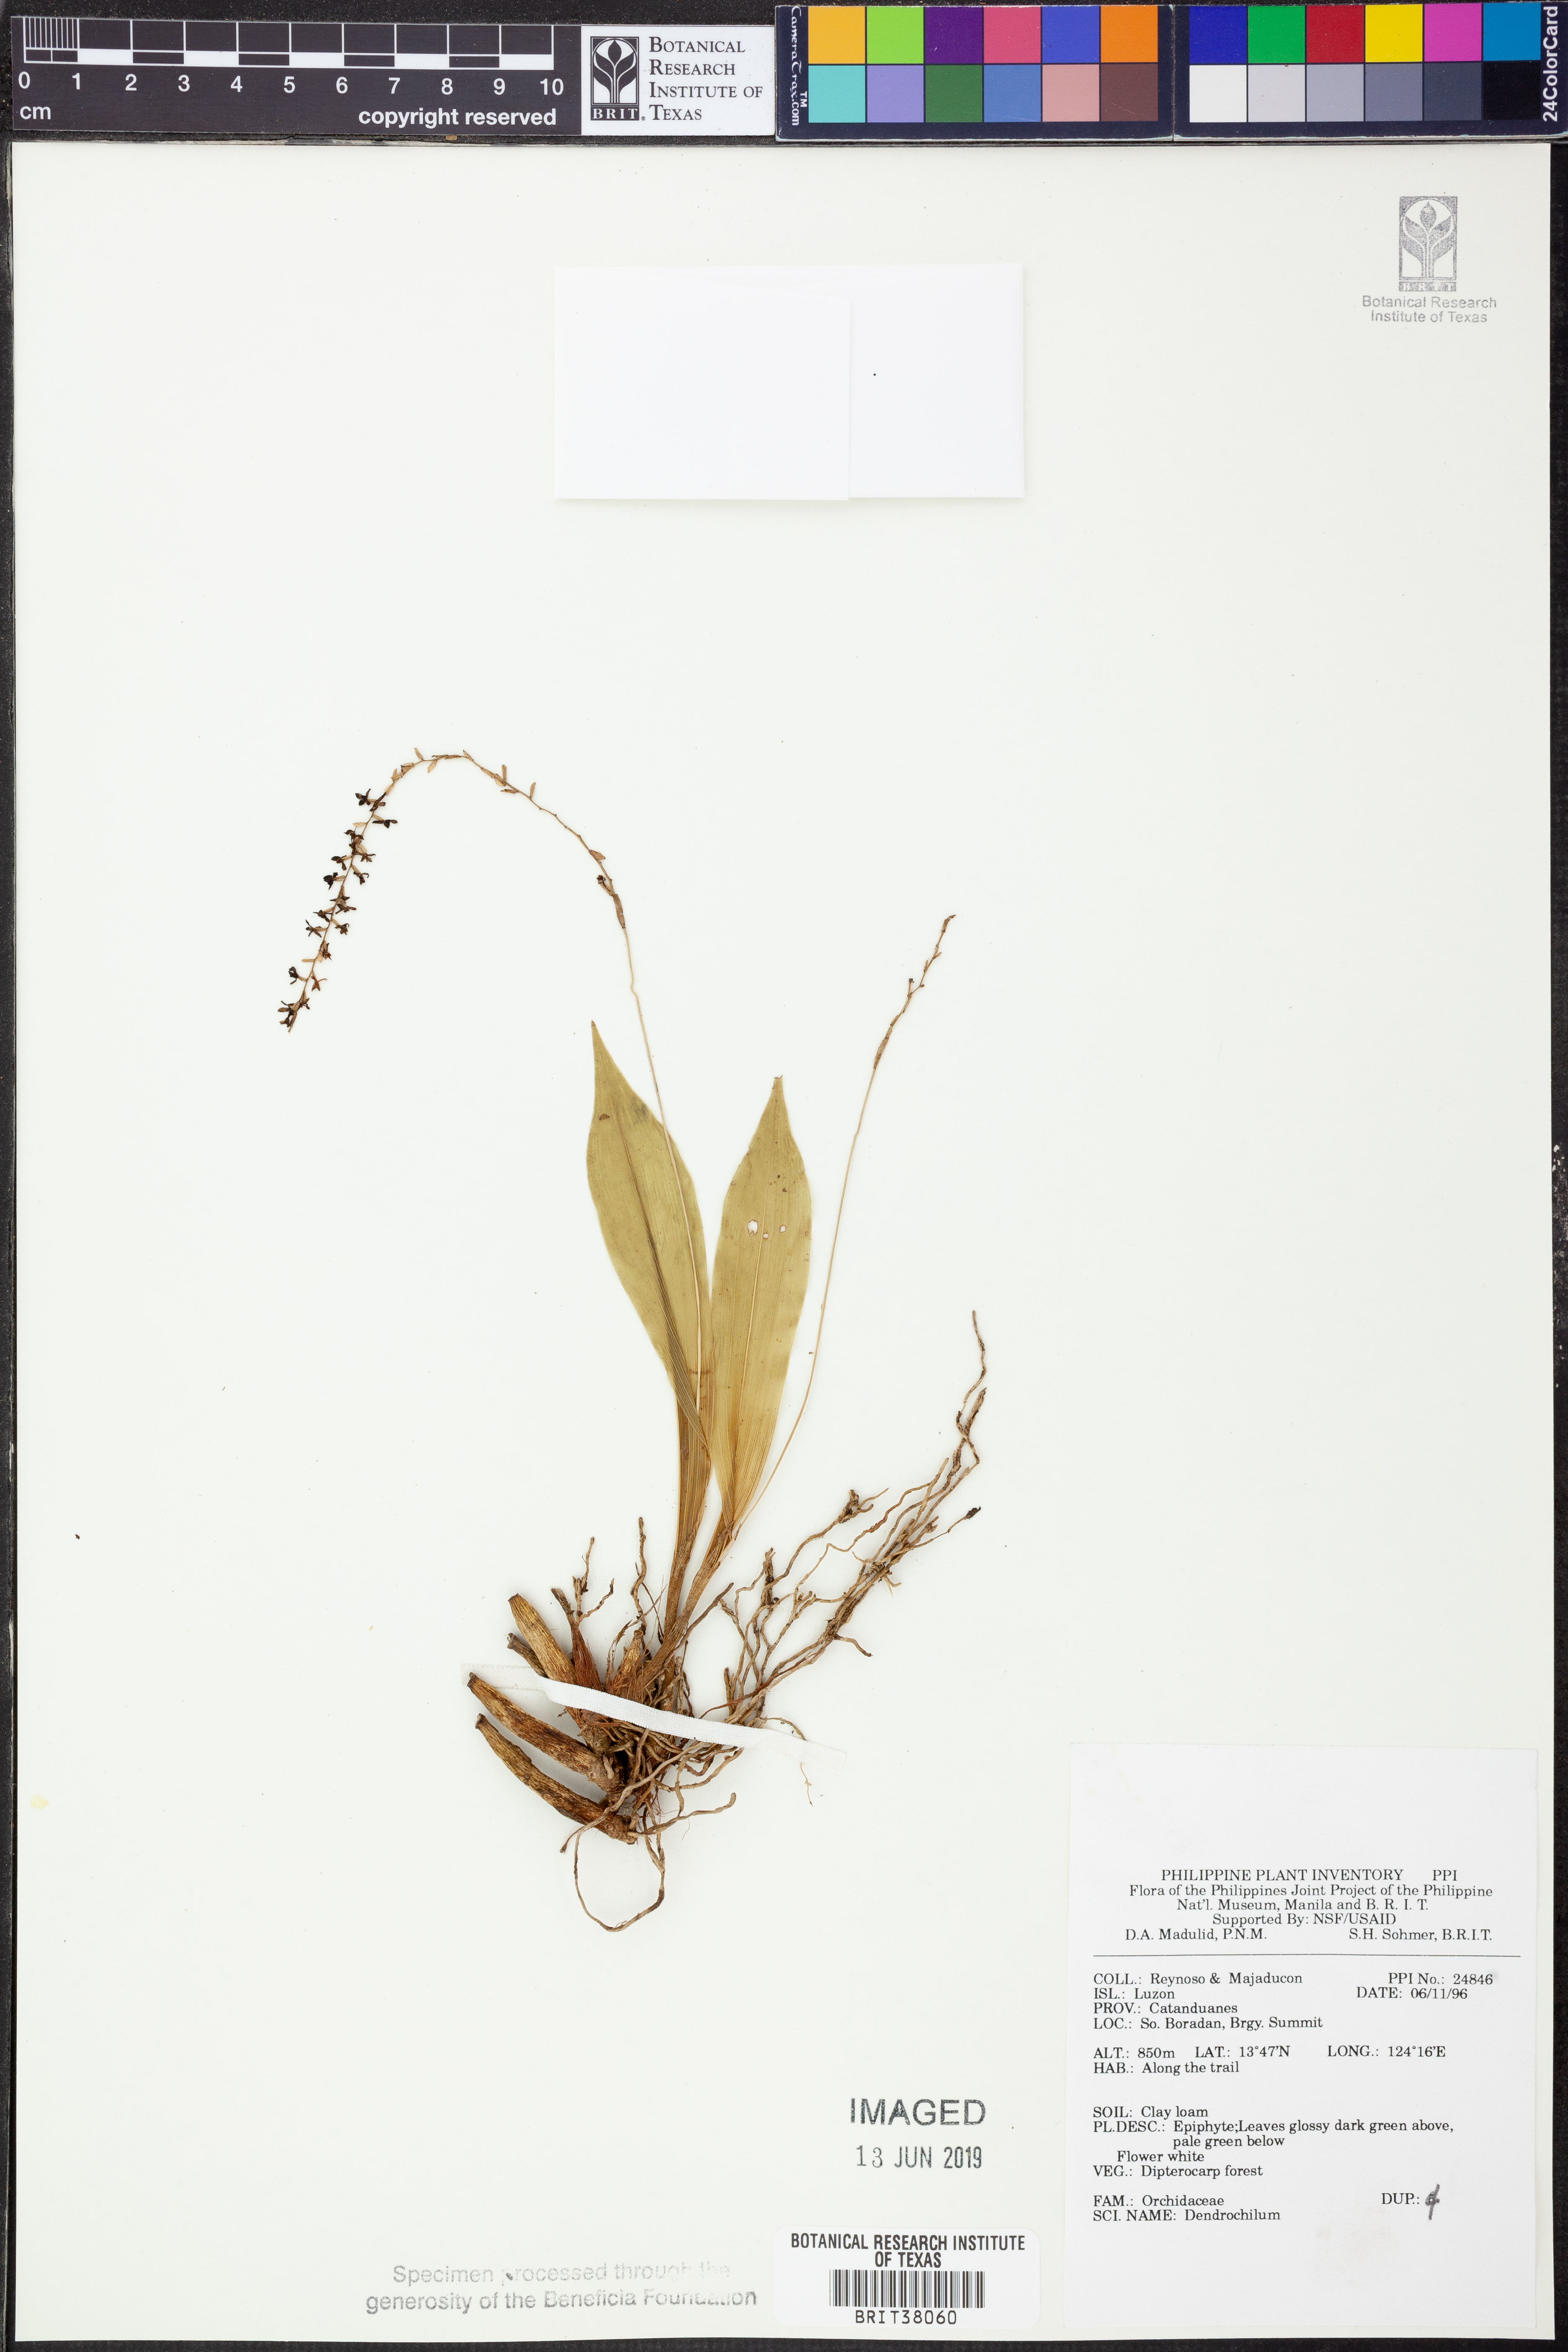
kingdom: Plantae
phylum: Tracheophyta
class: Liliopsida
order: Asparagales
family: Orchidaceae
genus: Coelogyne
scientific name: Coelogyne
